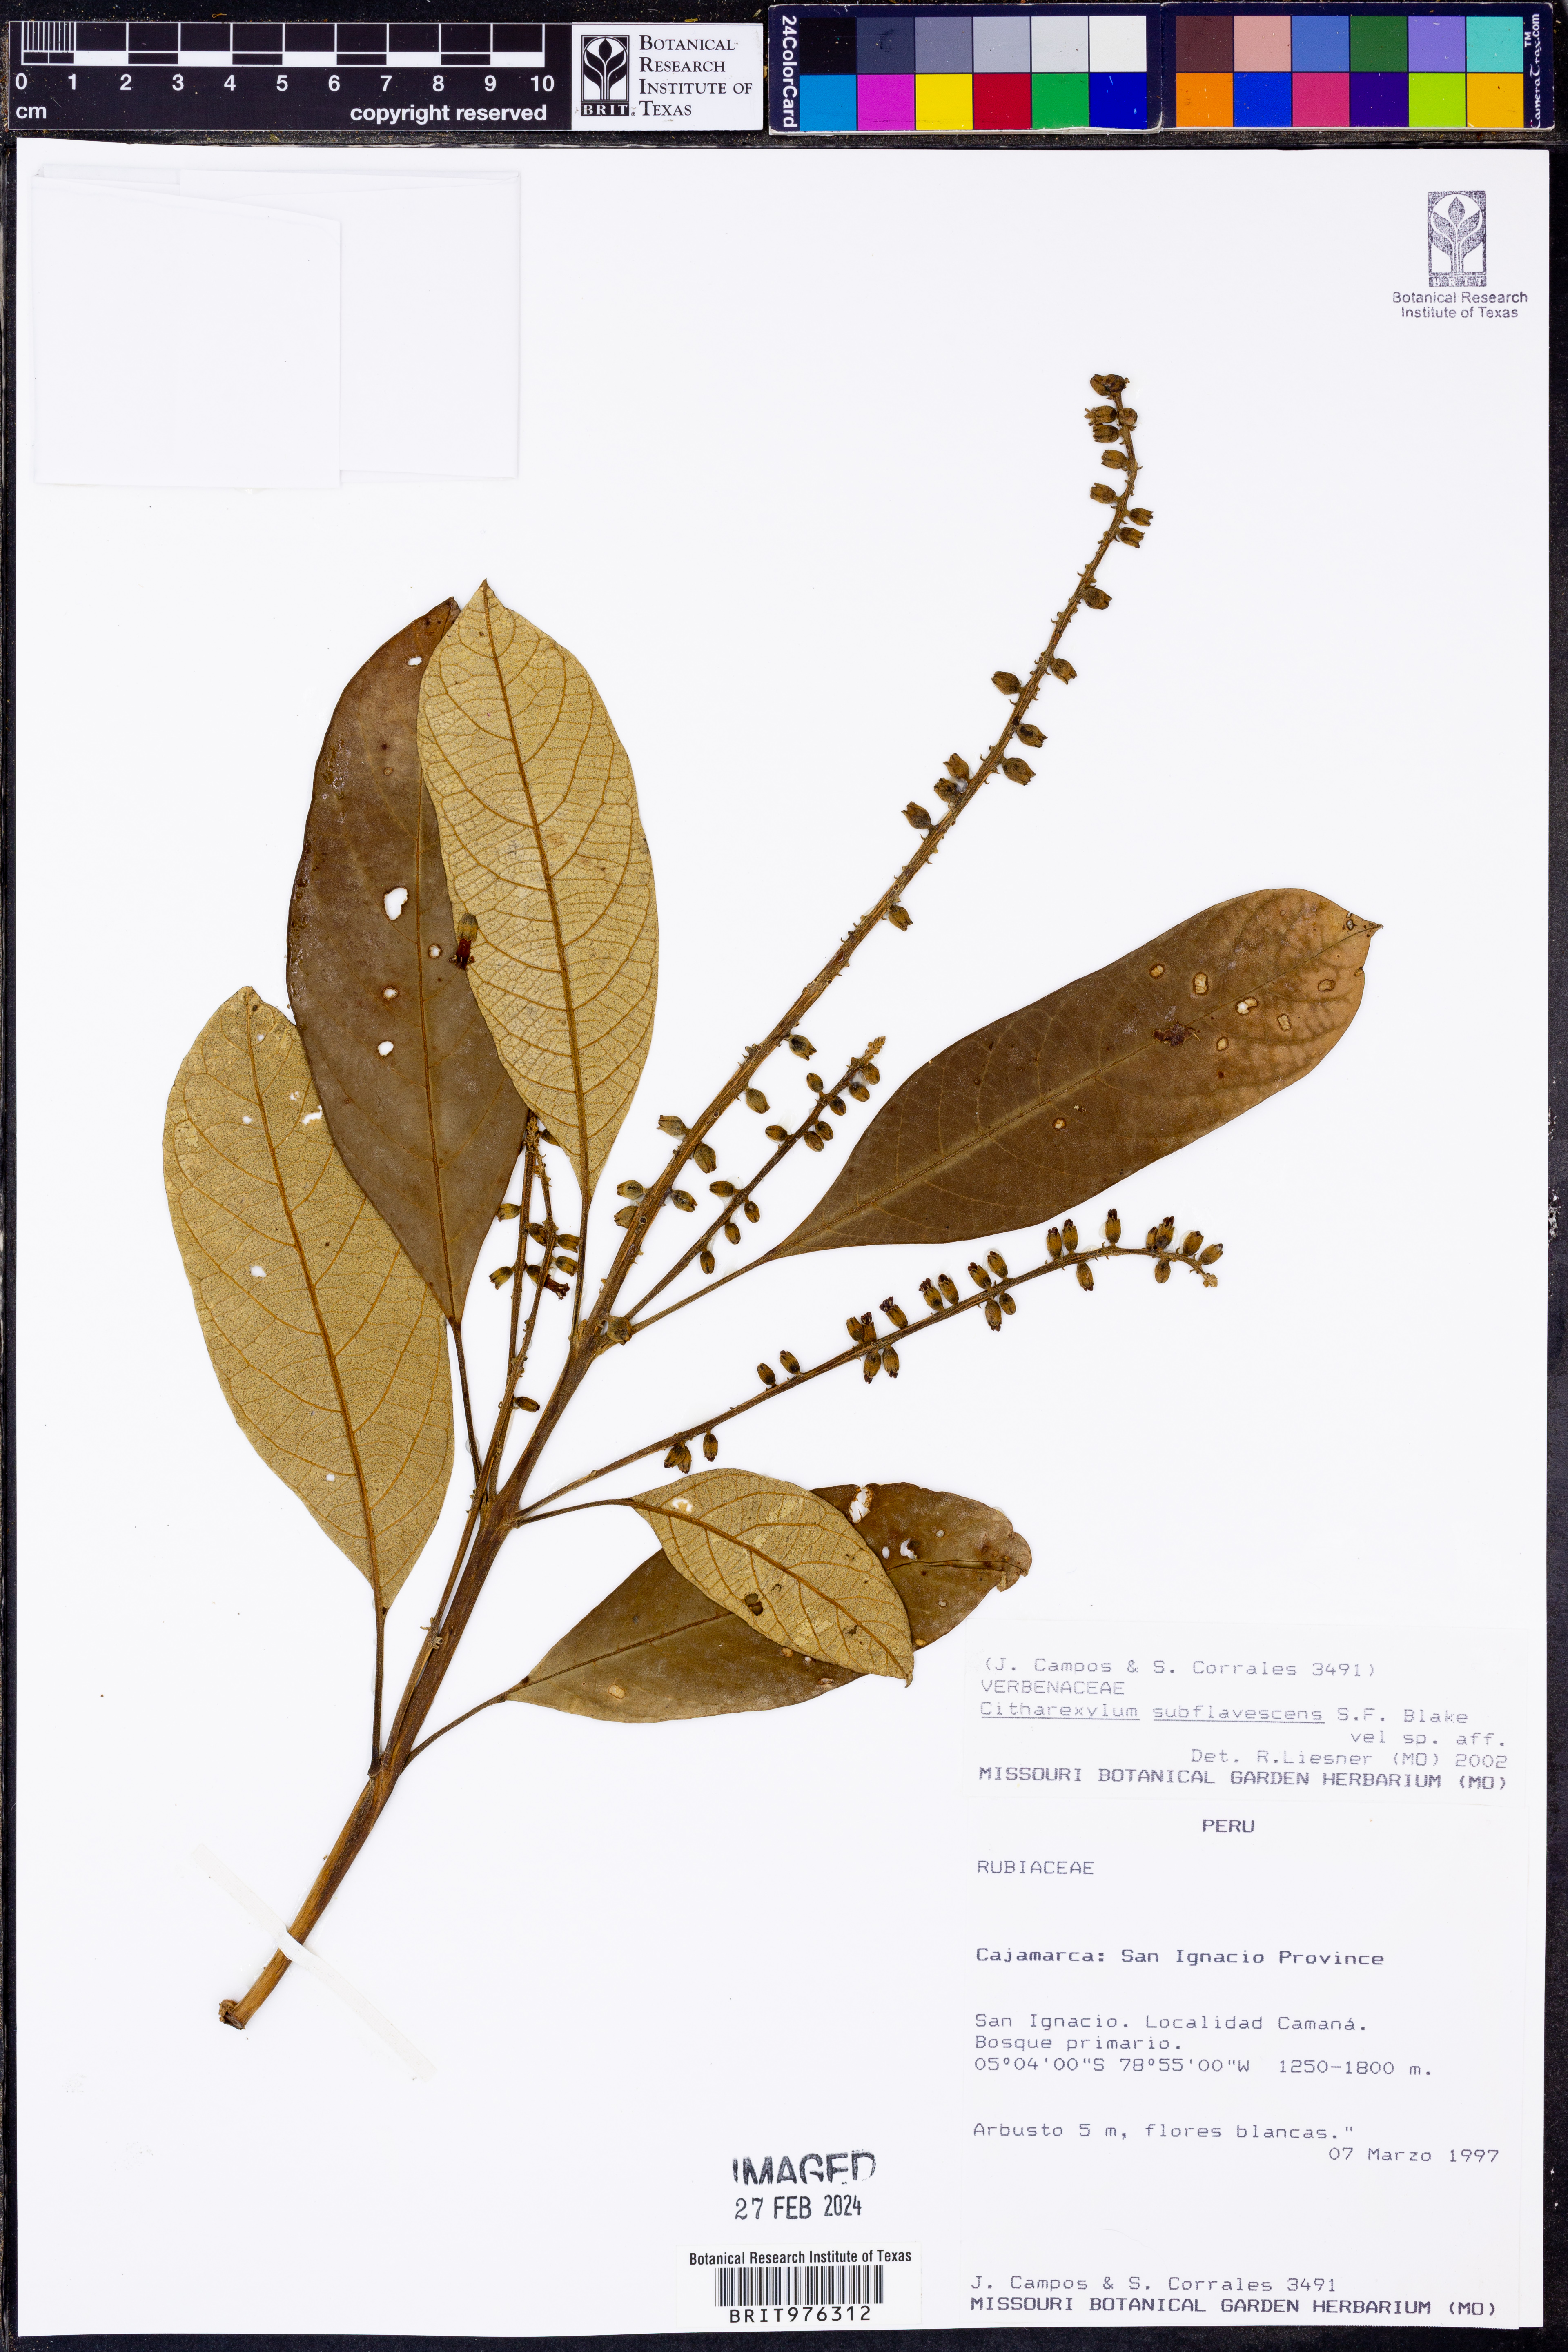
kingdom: Plantae
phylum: Tracheophyta
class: Magnoliopsida
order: Lamiales
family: Verbenaceae
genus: Citharexylum
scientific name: Citharexylum
